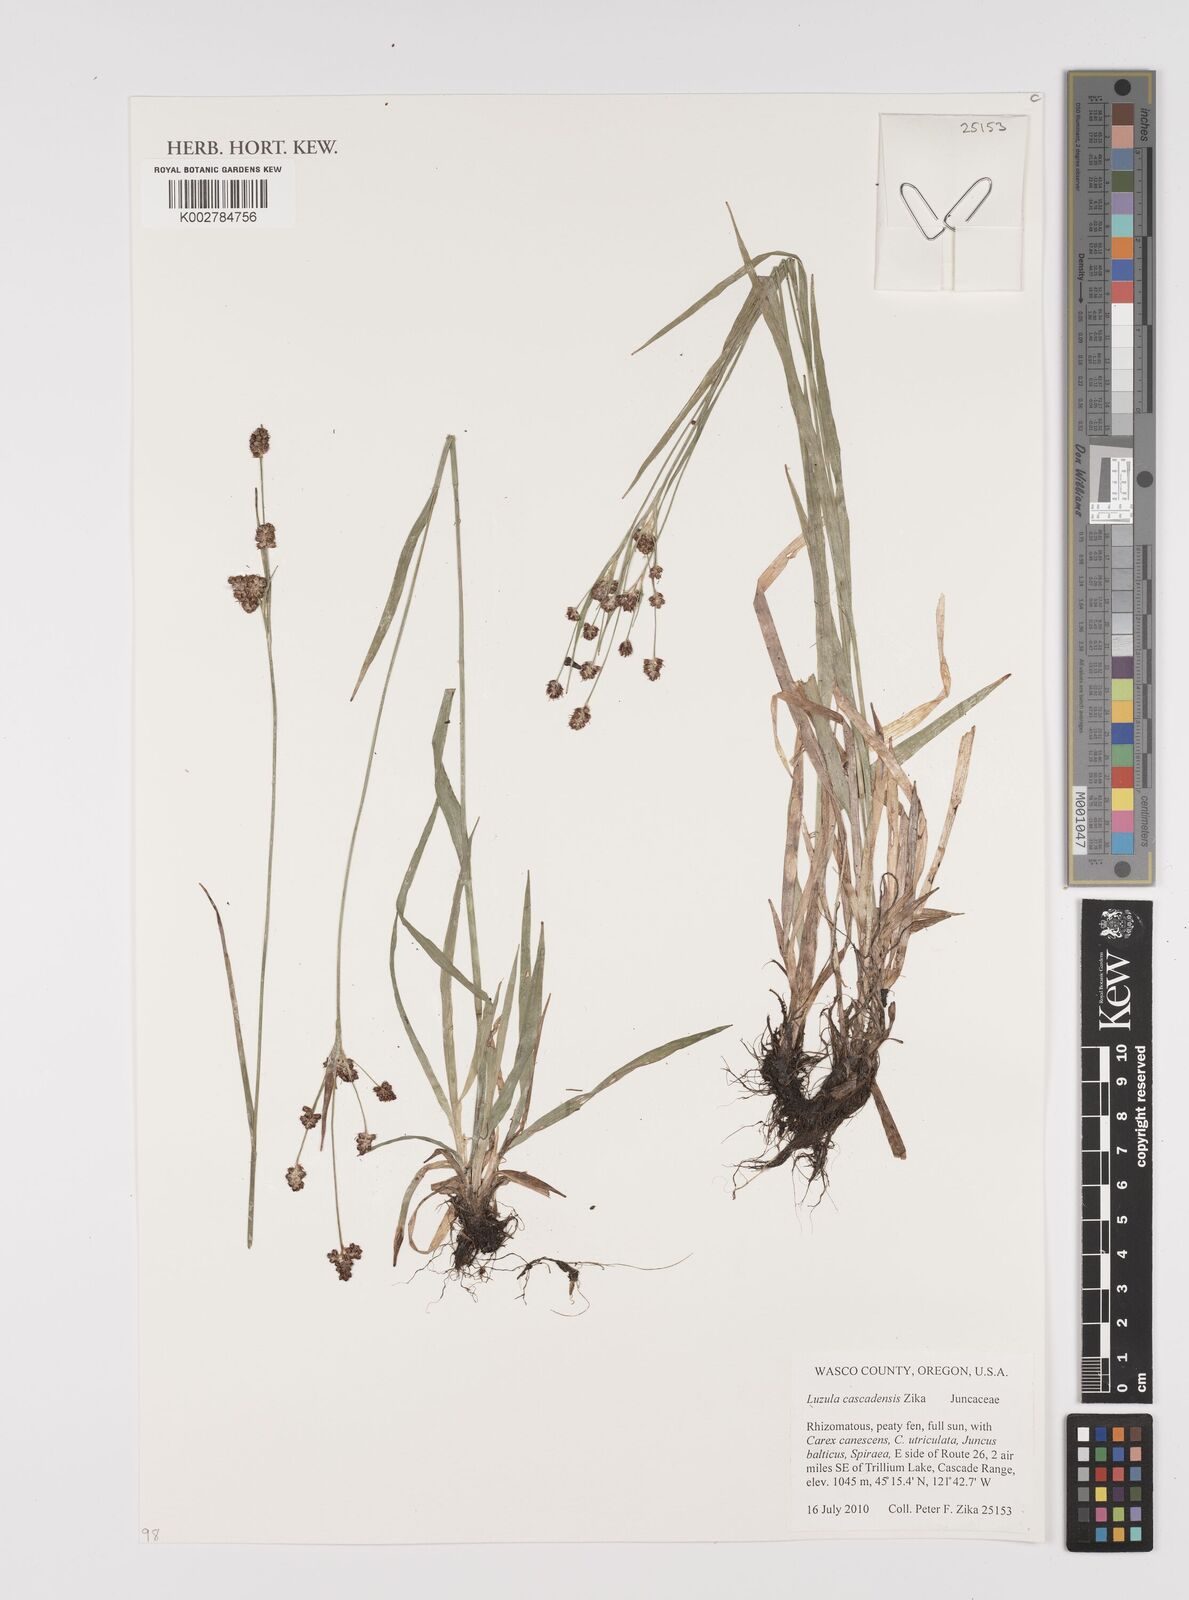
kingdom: Plantae
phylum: Tracheophyta
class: Liliopsida
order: Poales
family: Juncaceae
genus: Luzula
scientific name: Luzula cascadensis
